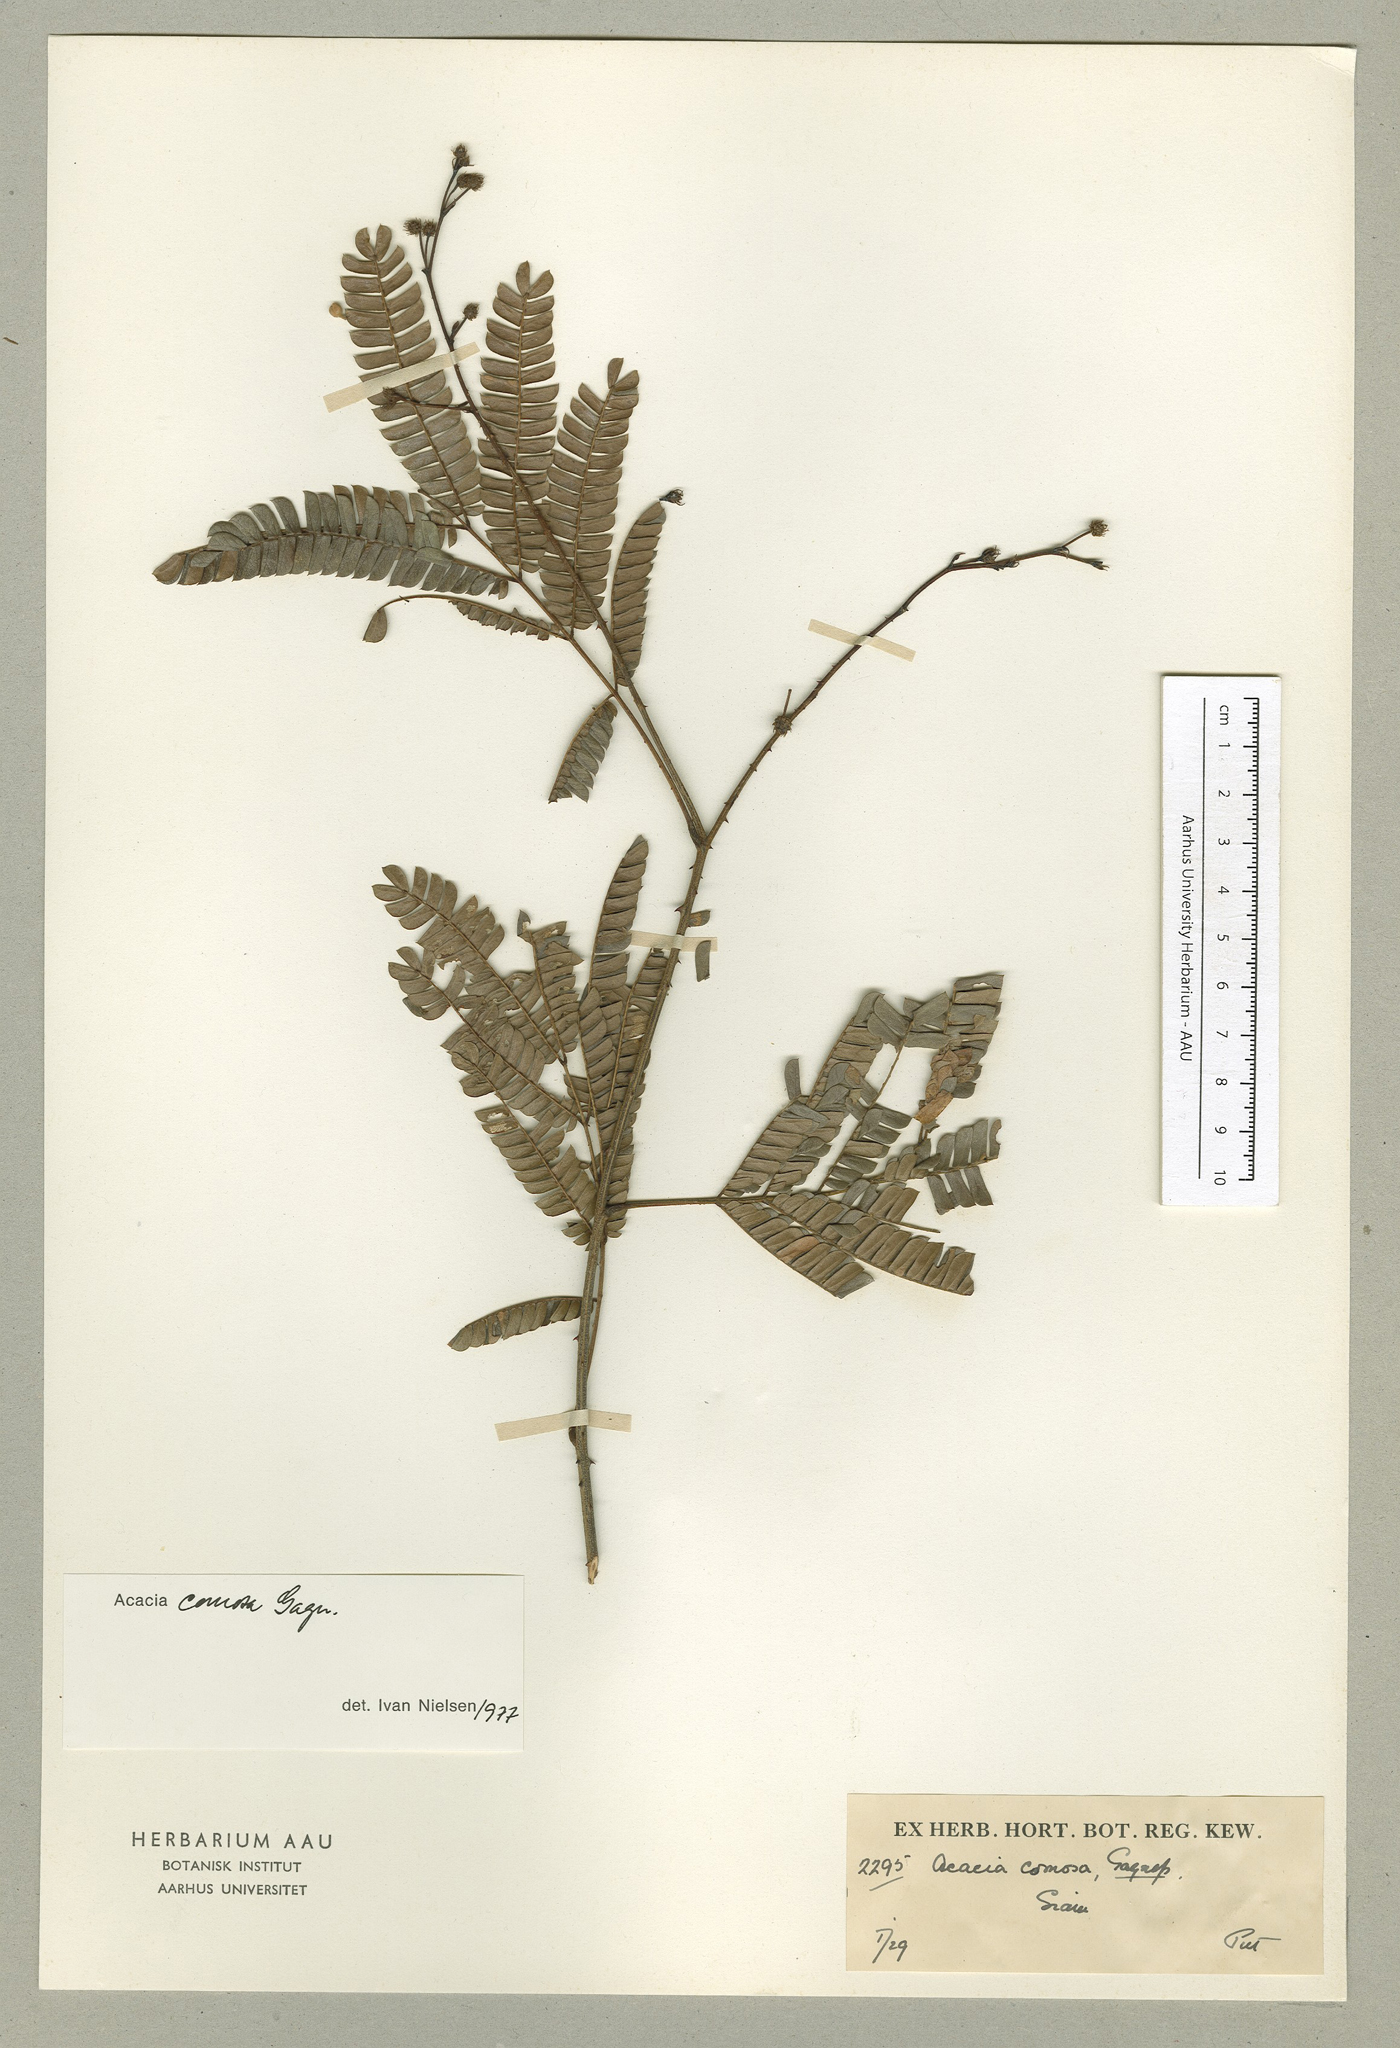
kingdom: Plantae
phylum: Tracheophyta
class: Magnoliopsida
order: Fabales
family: Fabaceae
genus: Senegalia
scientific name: Senegalia comosa
